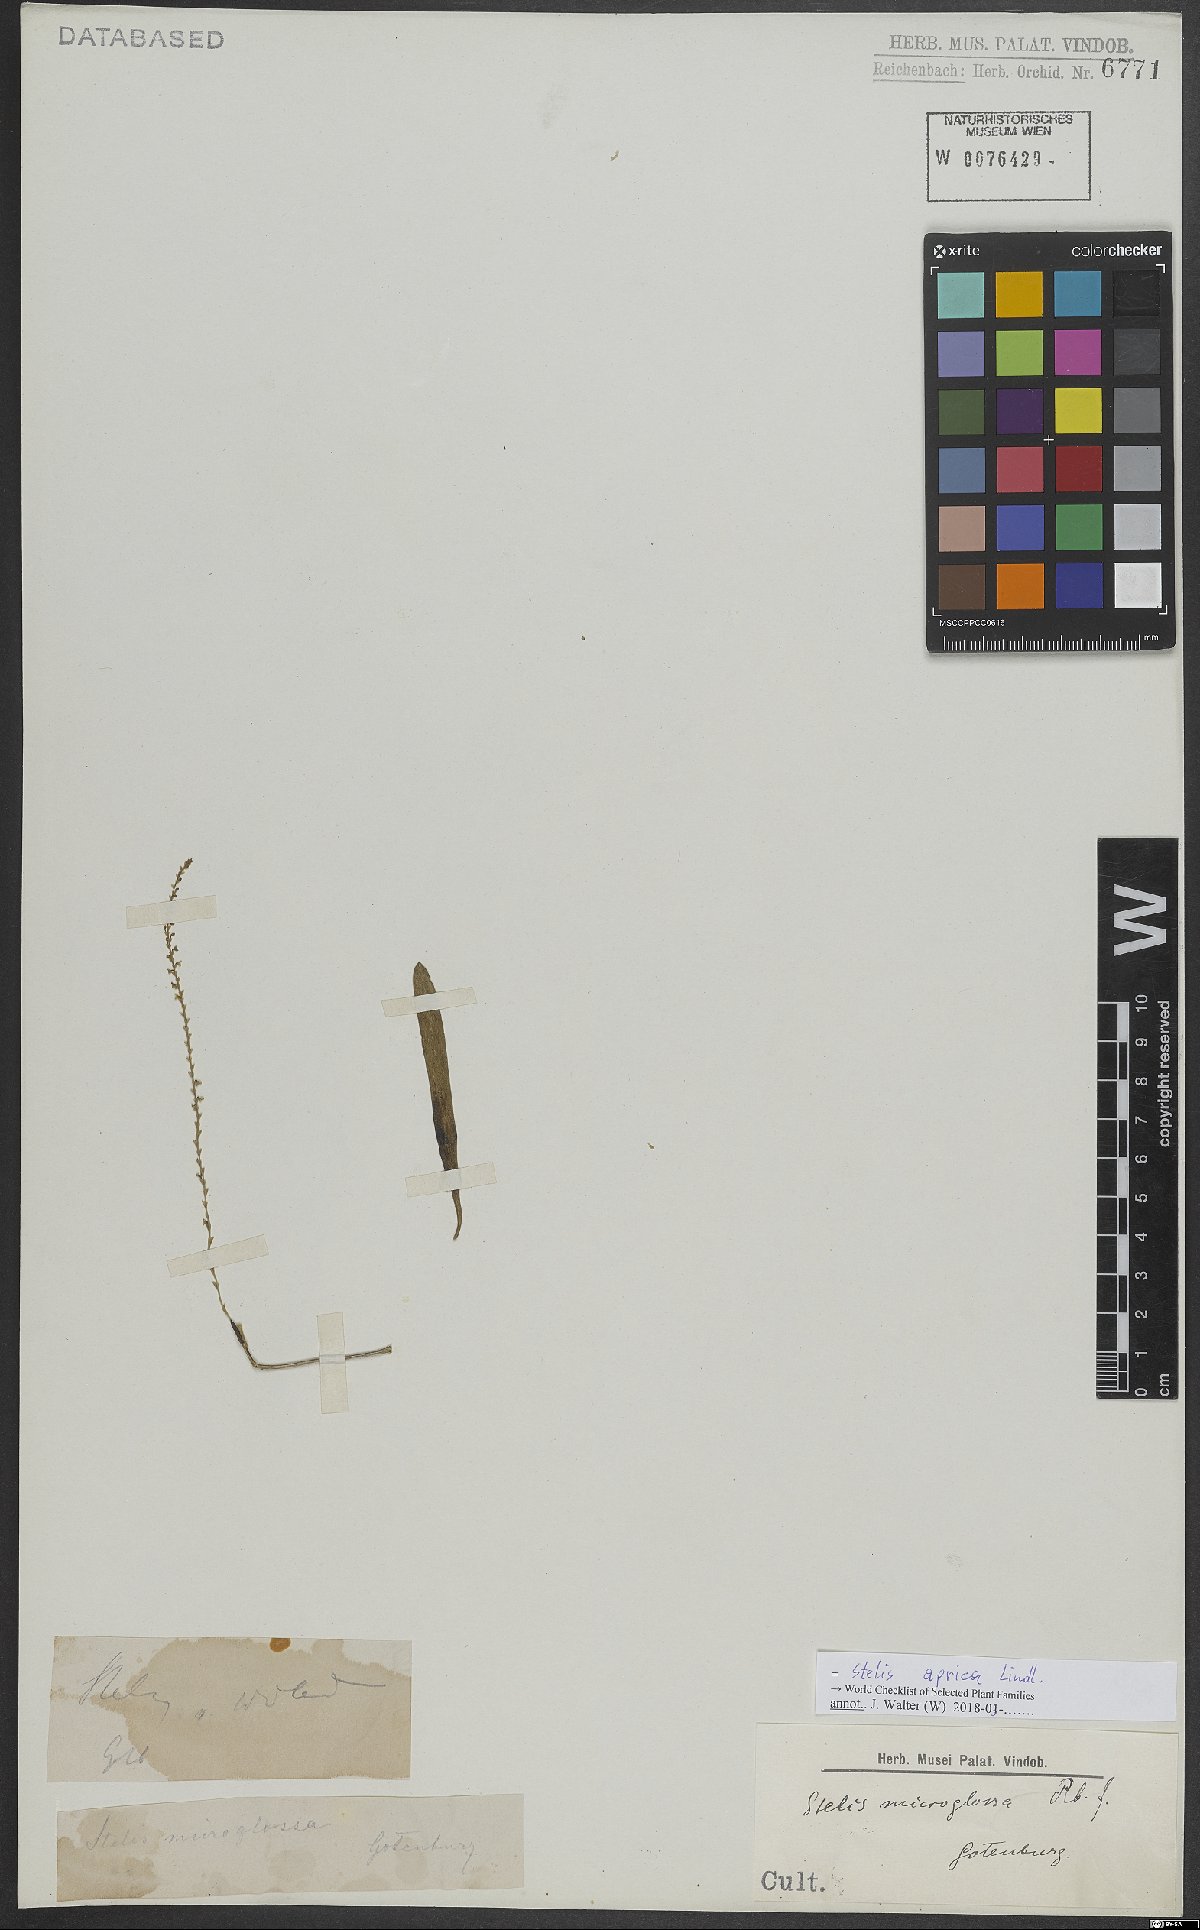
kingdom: Plantae
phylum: Tracheophyta
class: Liliopsida
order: Asparagales
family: Orchidaceae
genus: Stelis
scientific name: Stelis aprica
